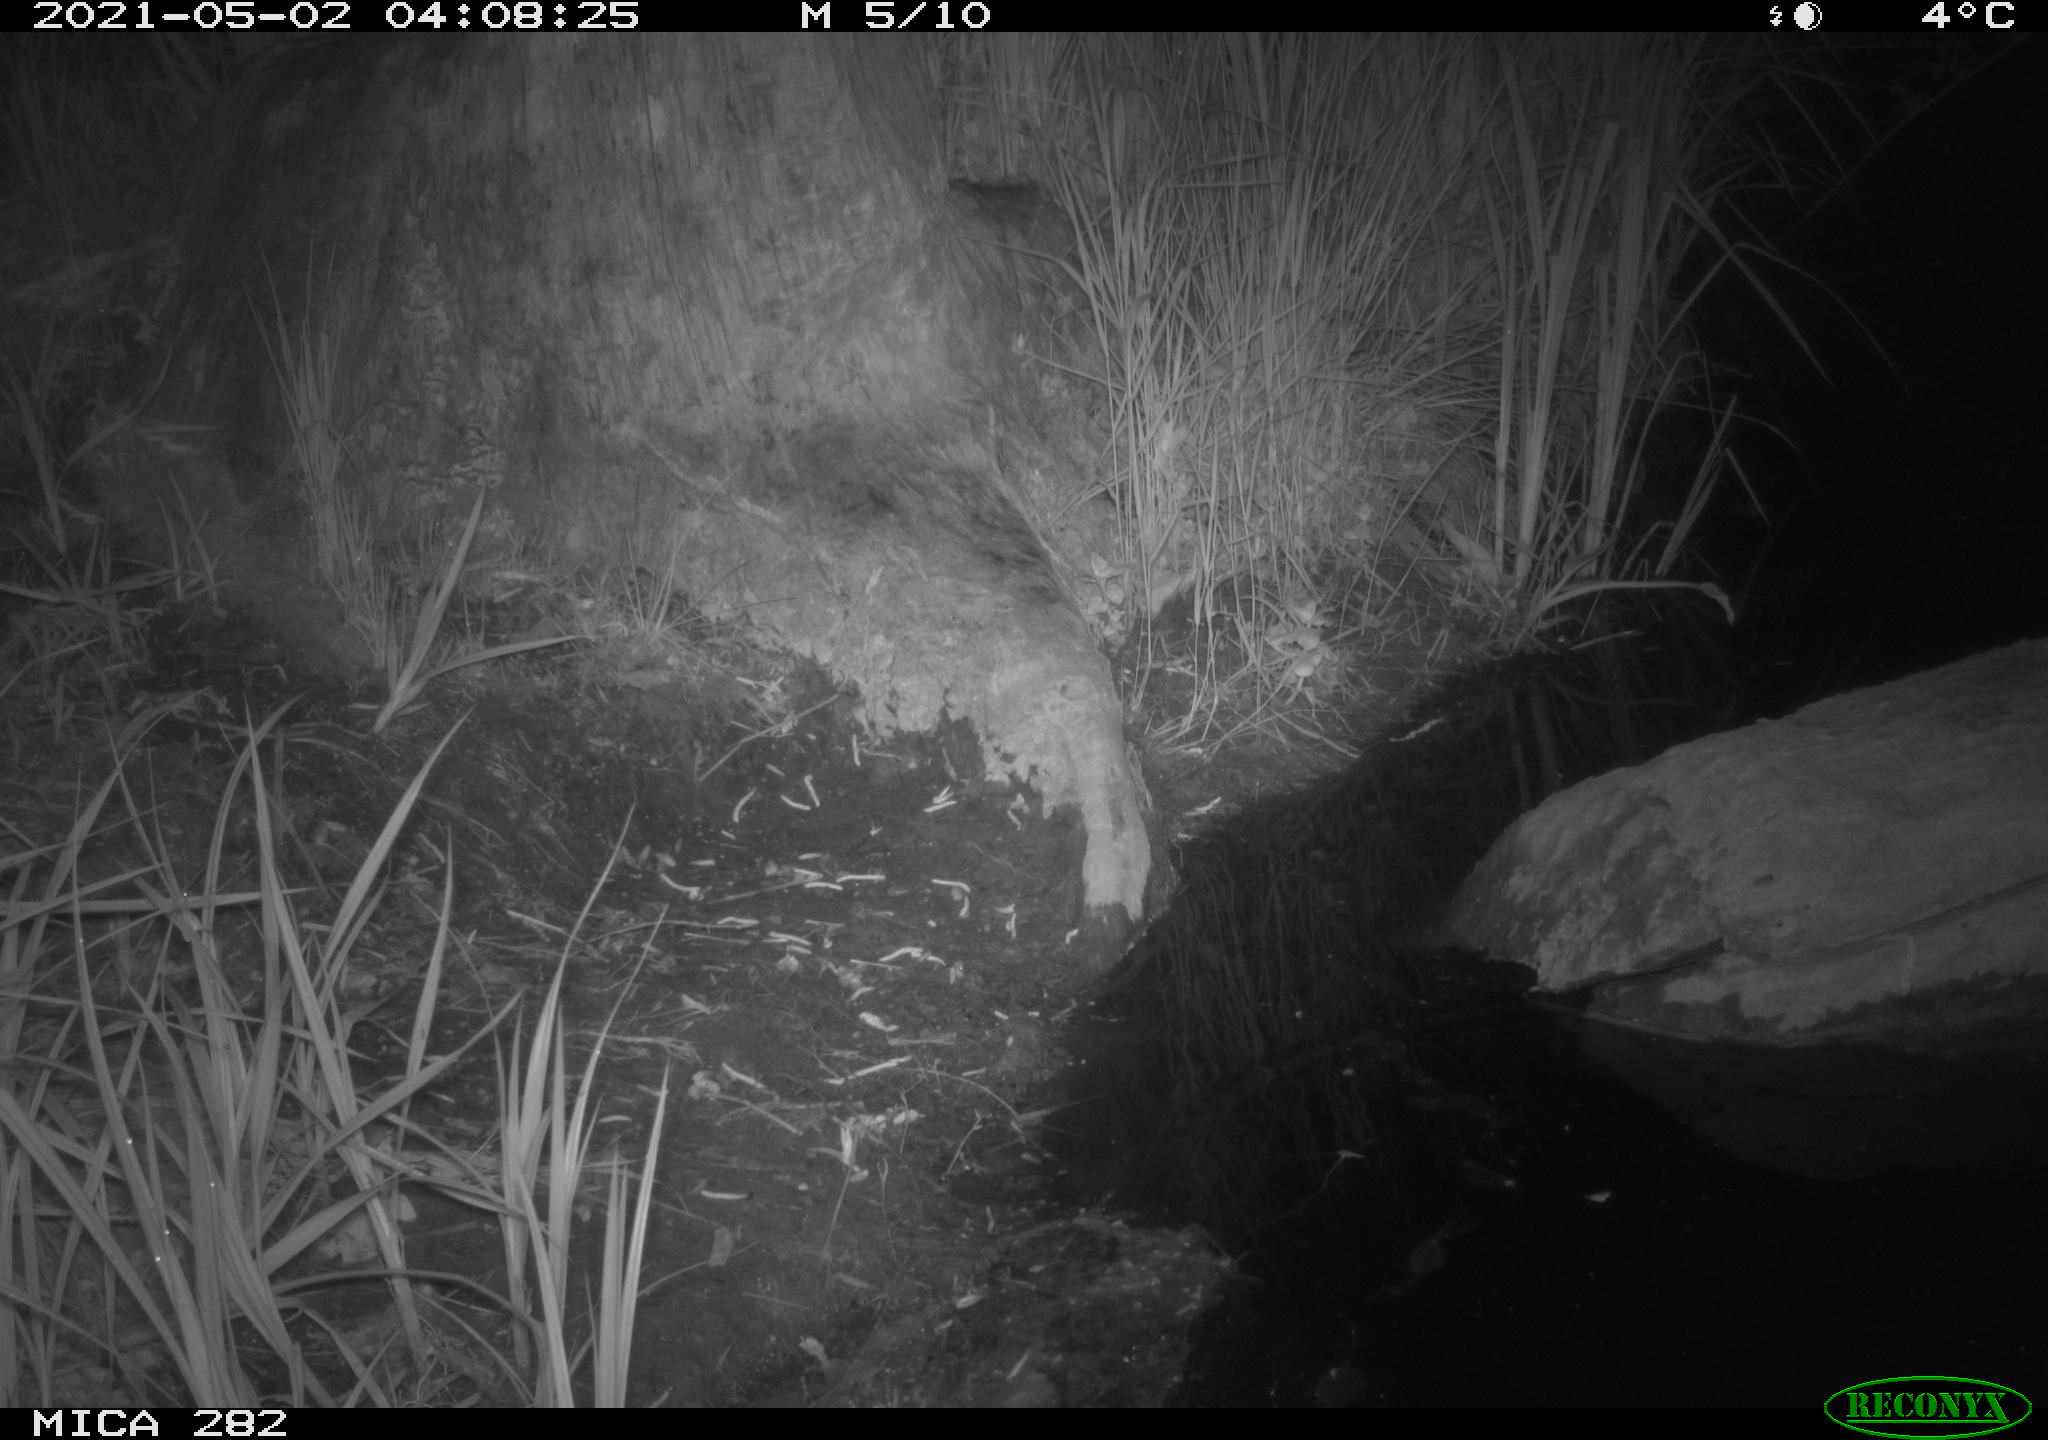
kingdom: Animalia
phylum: Chordata
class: Mammalia
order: Carnivora
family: Canidae
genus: Vulpes
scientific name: Vulpes vulpes
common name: Red fox
